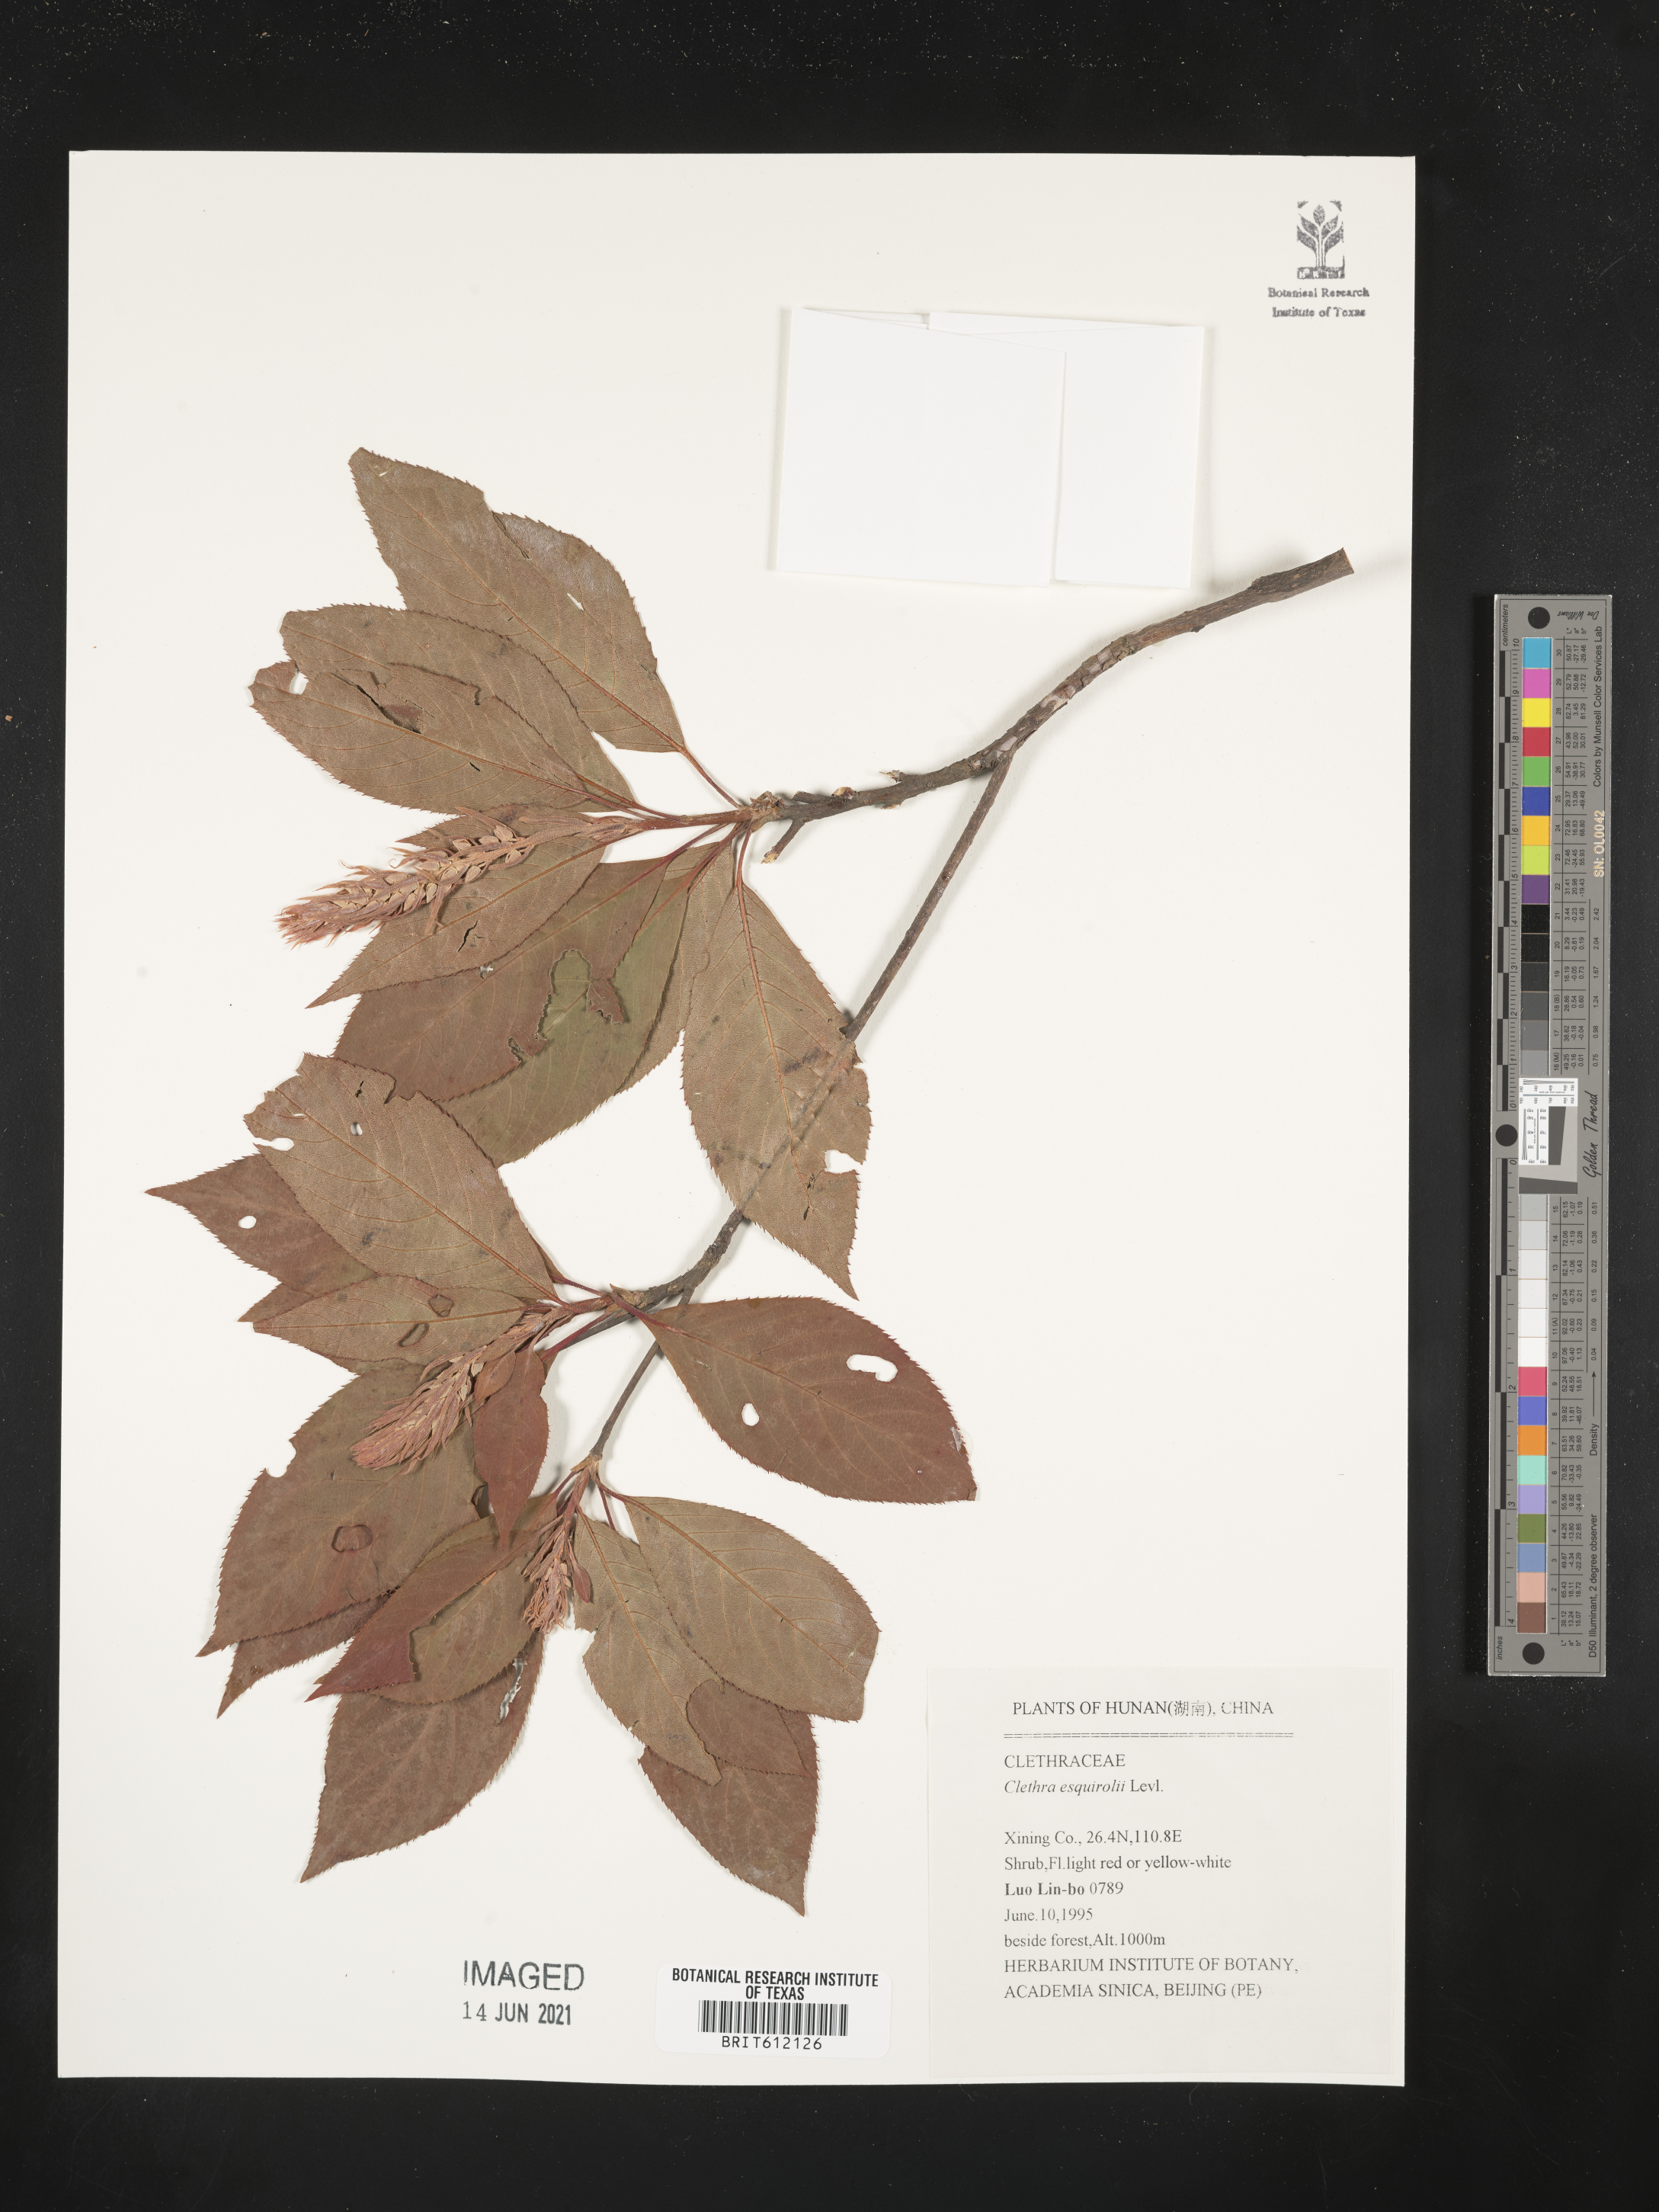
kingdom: Plantae
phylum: Tracheophyta
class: Magnoliopsida
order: Ericales
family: Clethraceae
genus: Clethra
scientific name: Clethra delavayi
